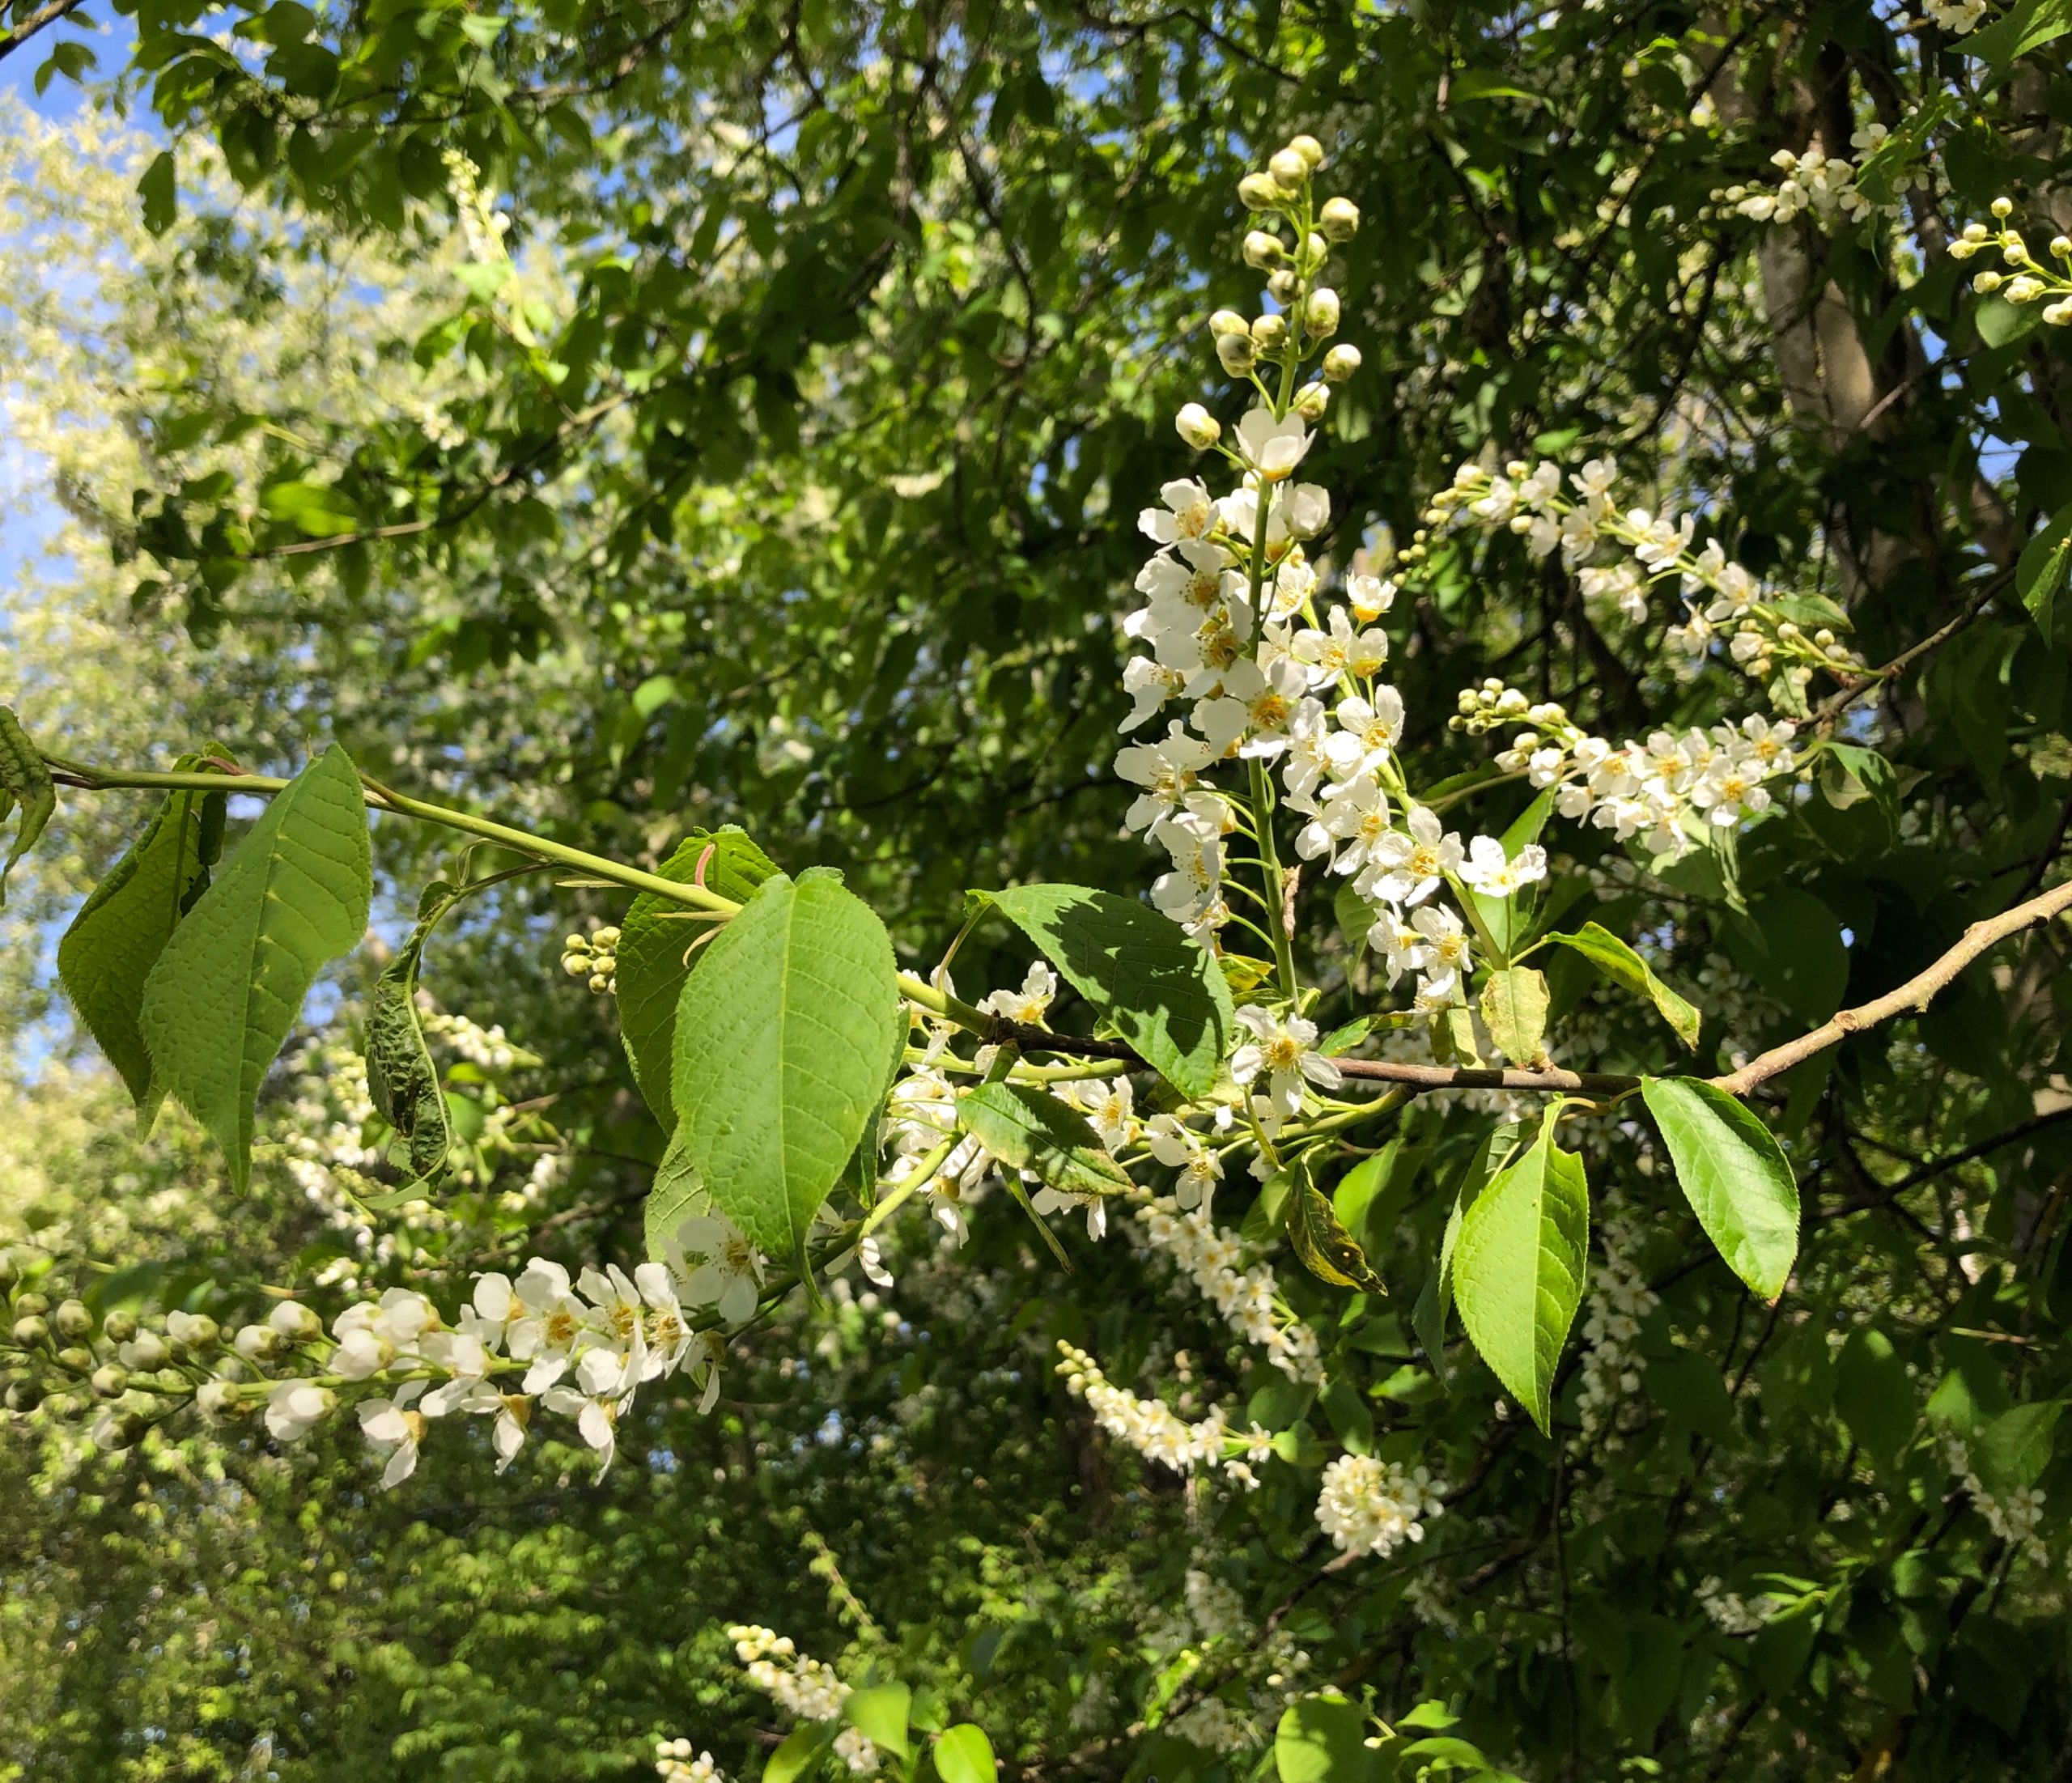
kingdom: Plantae
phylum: Tracheophyta
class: Magnoliopsida
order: Rosales
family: Rosaceae
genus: Prunus
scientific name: Prunus padus
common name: Almindelig hæg
